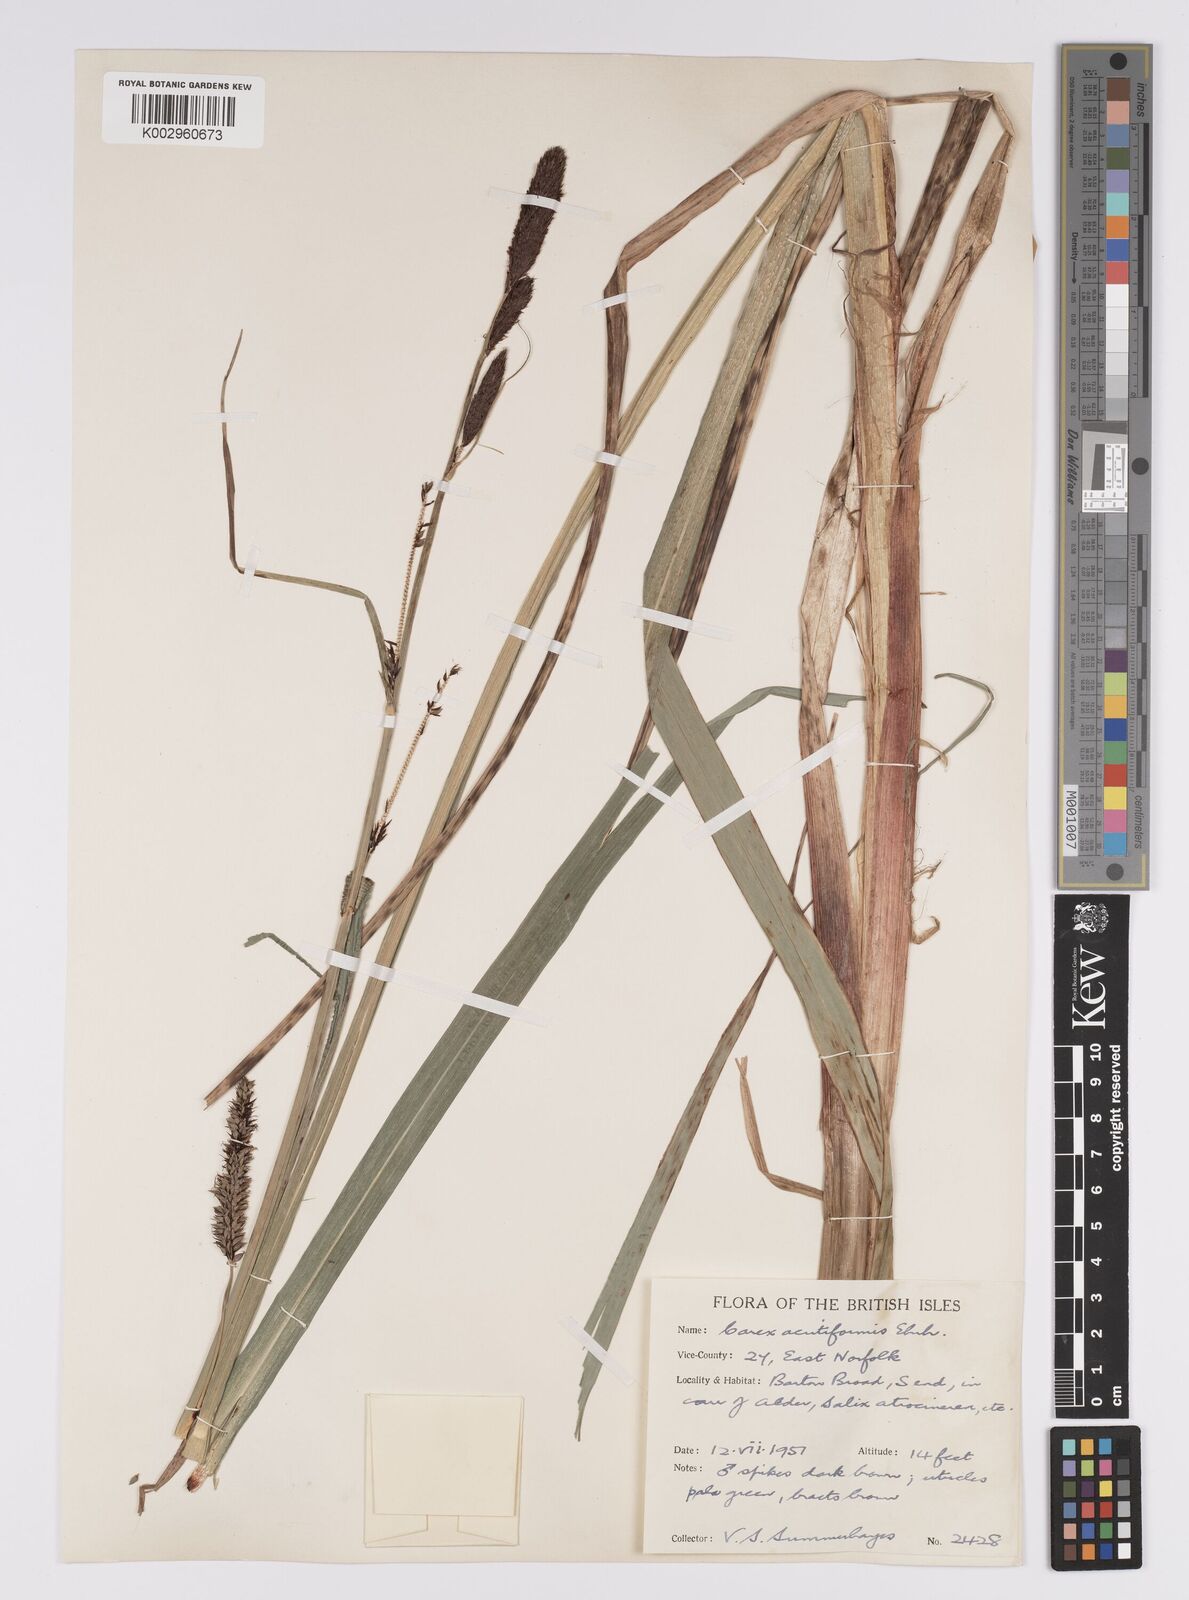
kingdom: Plantae
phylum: Tracheophyta
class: Liliopsida
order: Poales
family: Cyperaceae
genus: Carex
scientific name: Carex acutiformis
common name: Lesser pond-sedge
